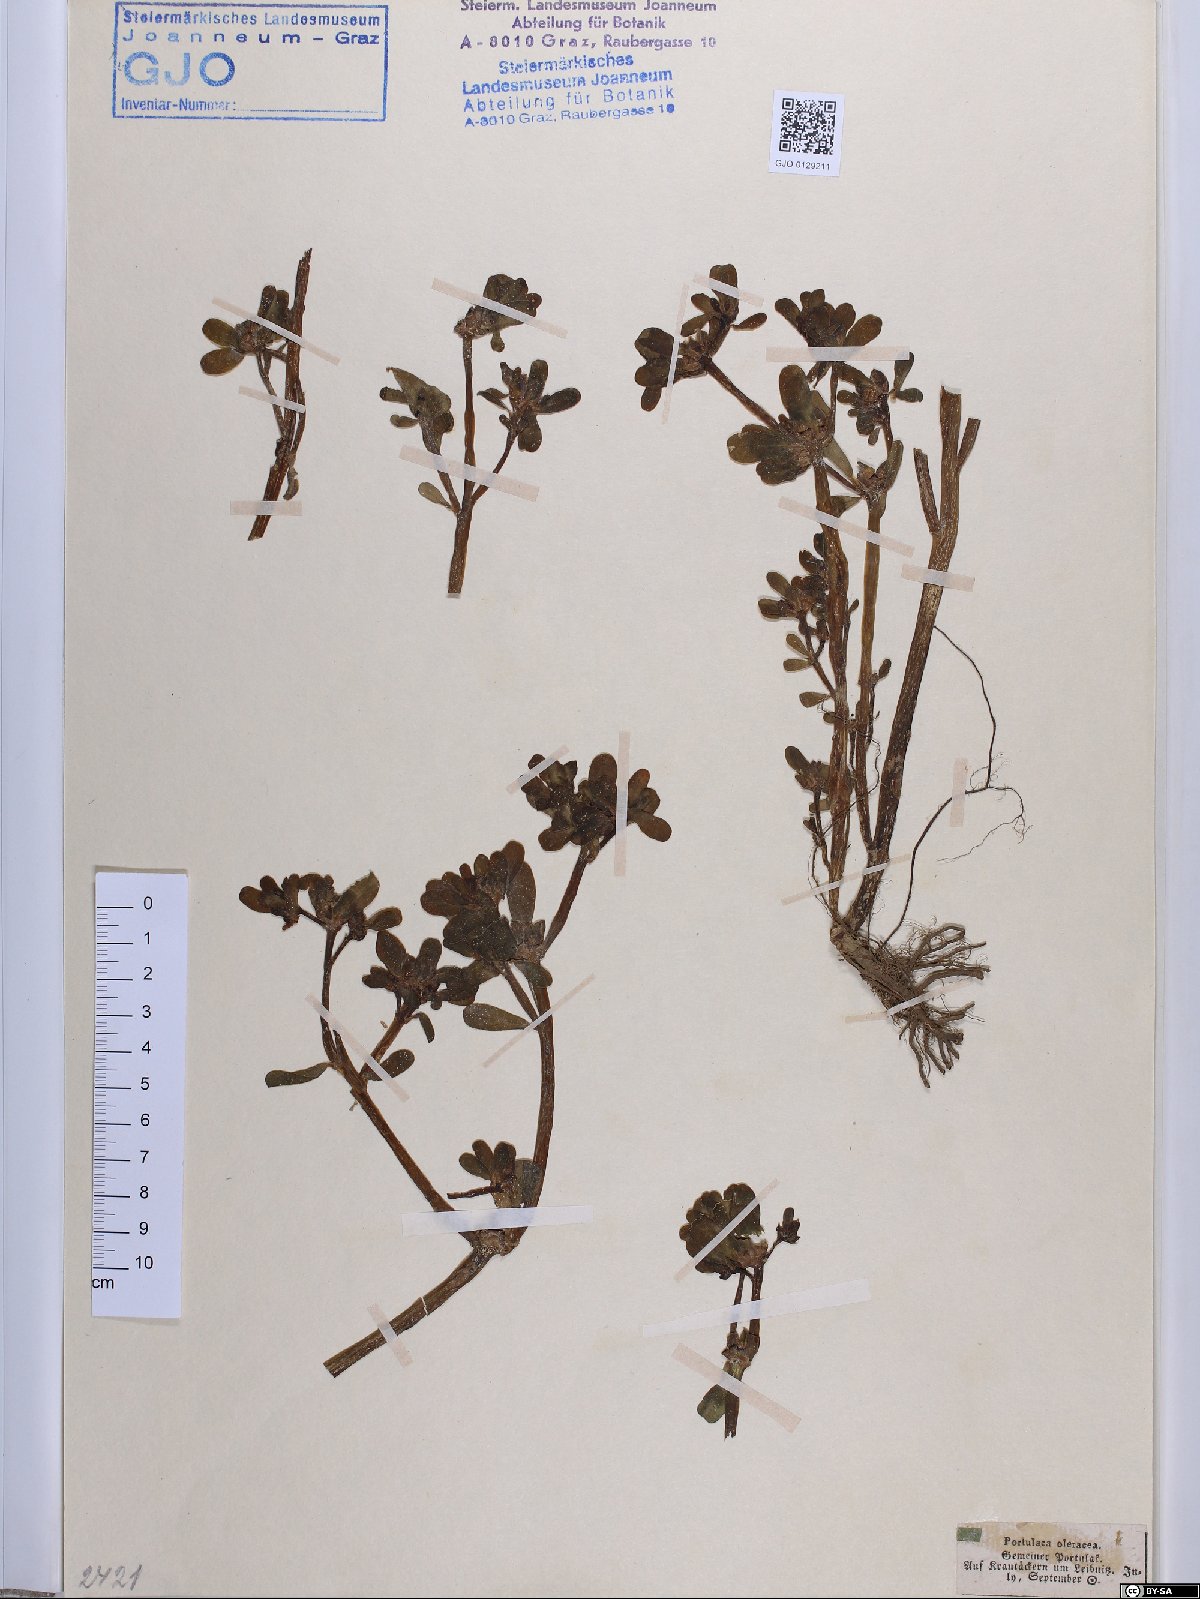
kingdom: Plantae
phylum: Tracheophyta
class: Magnoliopsida
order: Caryophyllales
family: Portulacaceae
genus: Portulaca
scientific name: Portulaca oleracea
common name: Common purslane
